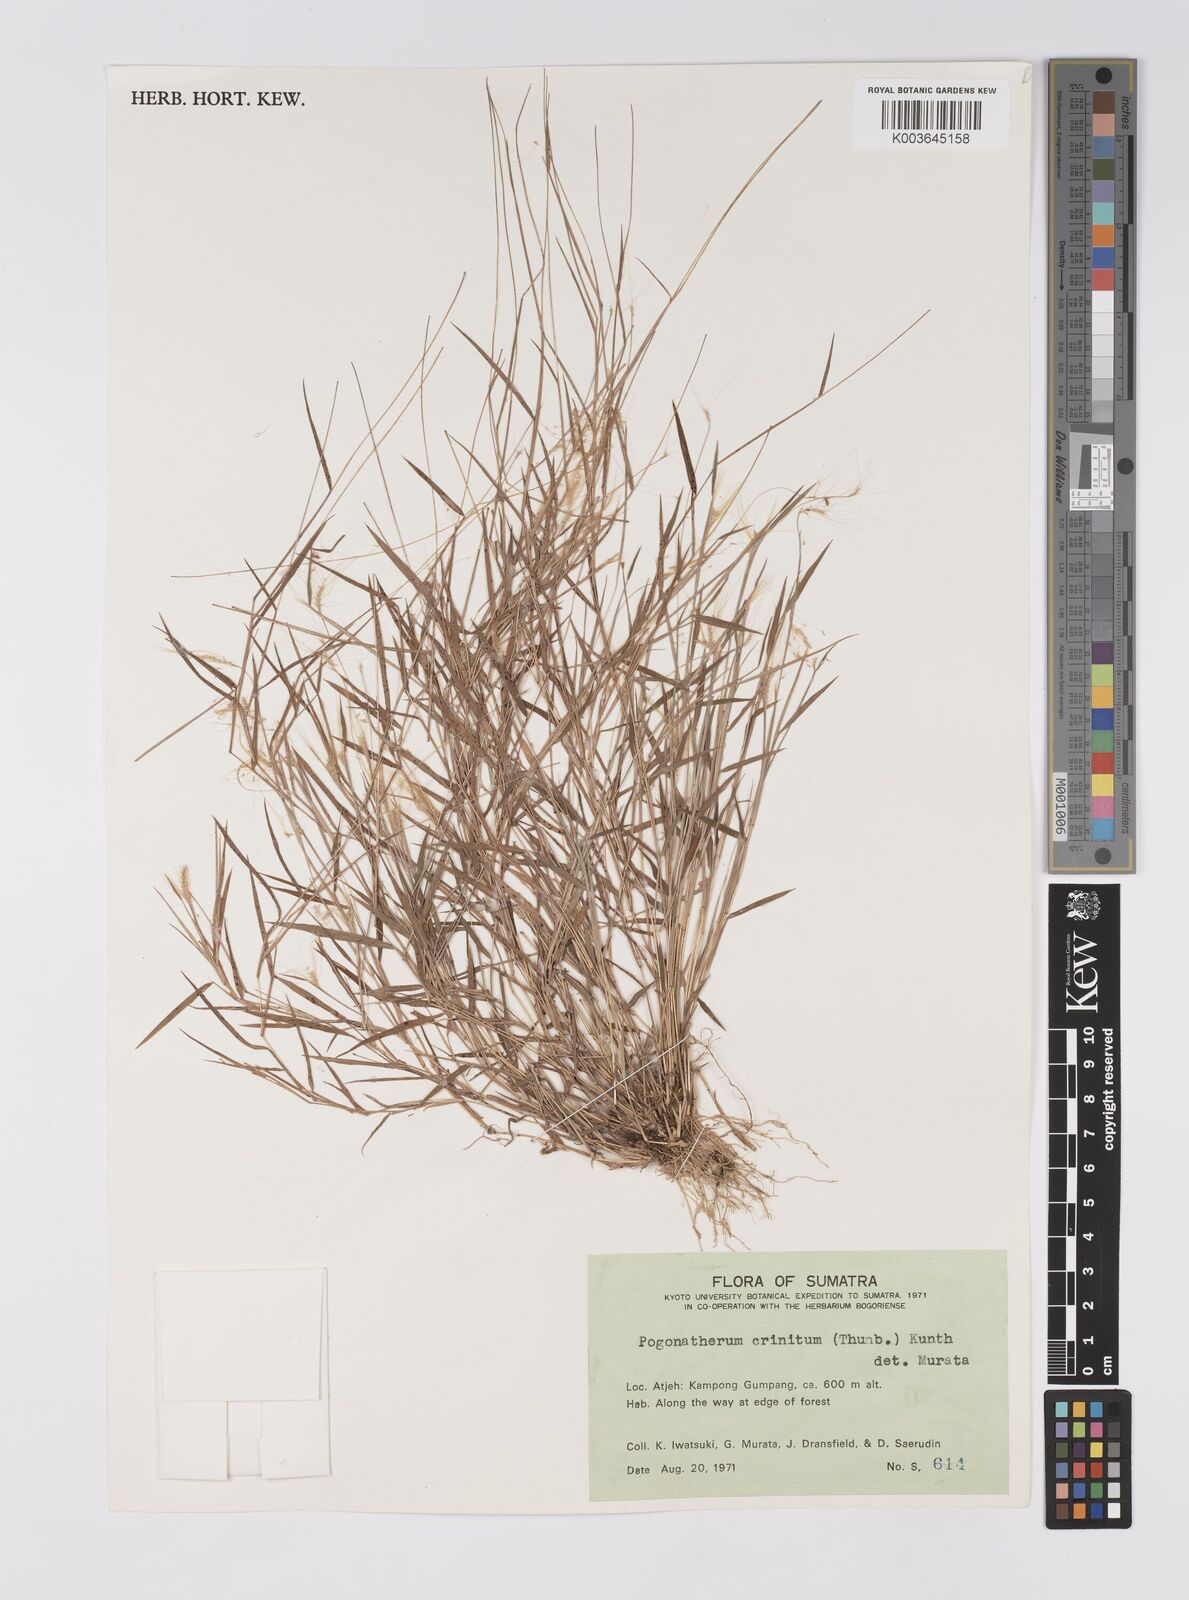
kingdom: Plantae
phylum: Tracheophyta
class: Liliopsida
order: Poales
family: Poaceae
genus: Pogonatherum
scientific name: Pogonatherum crinitum
